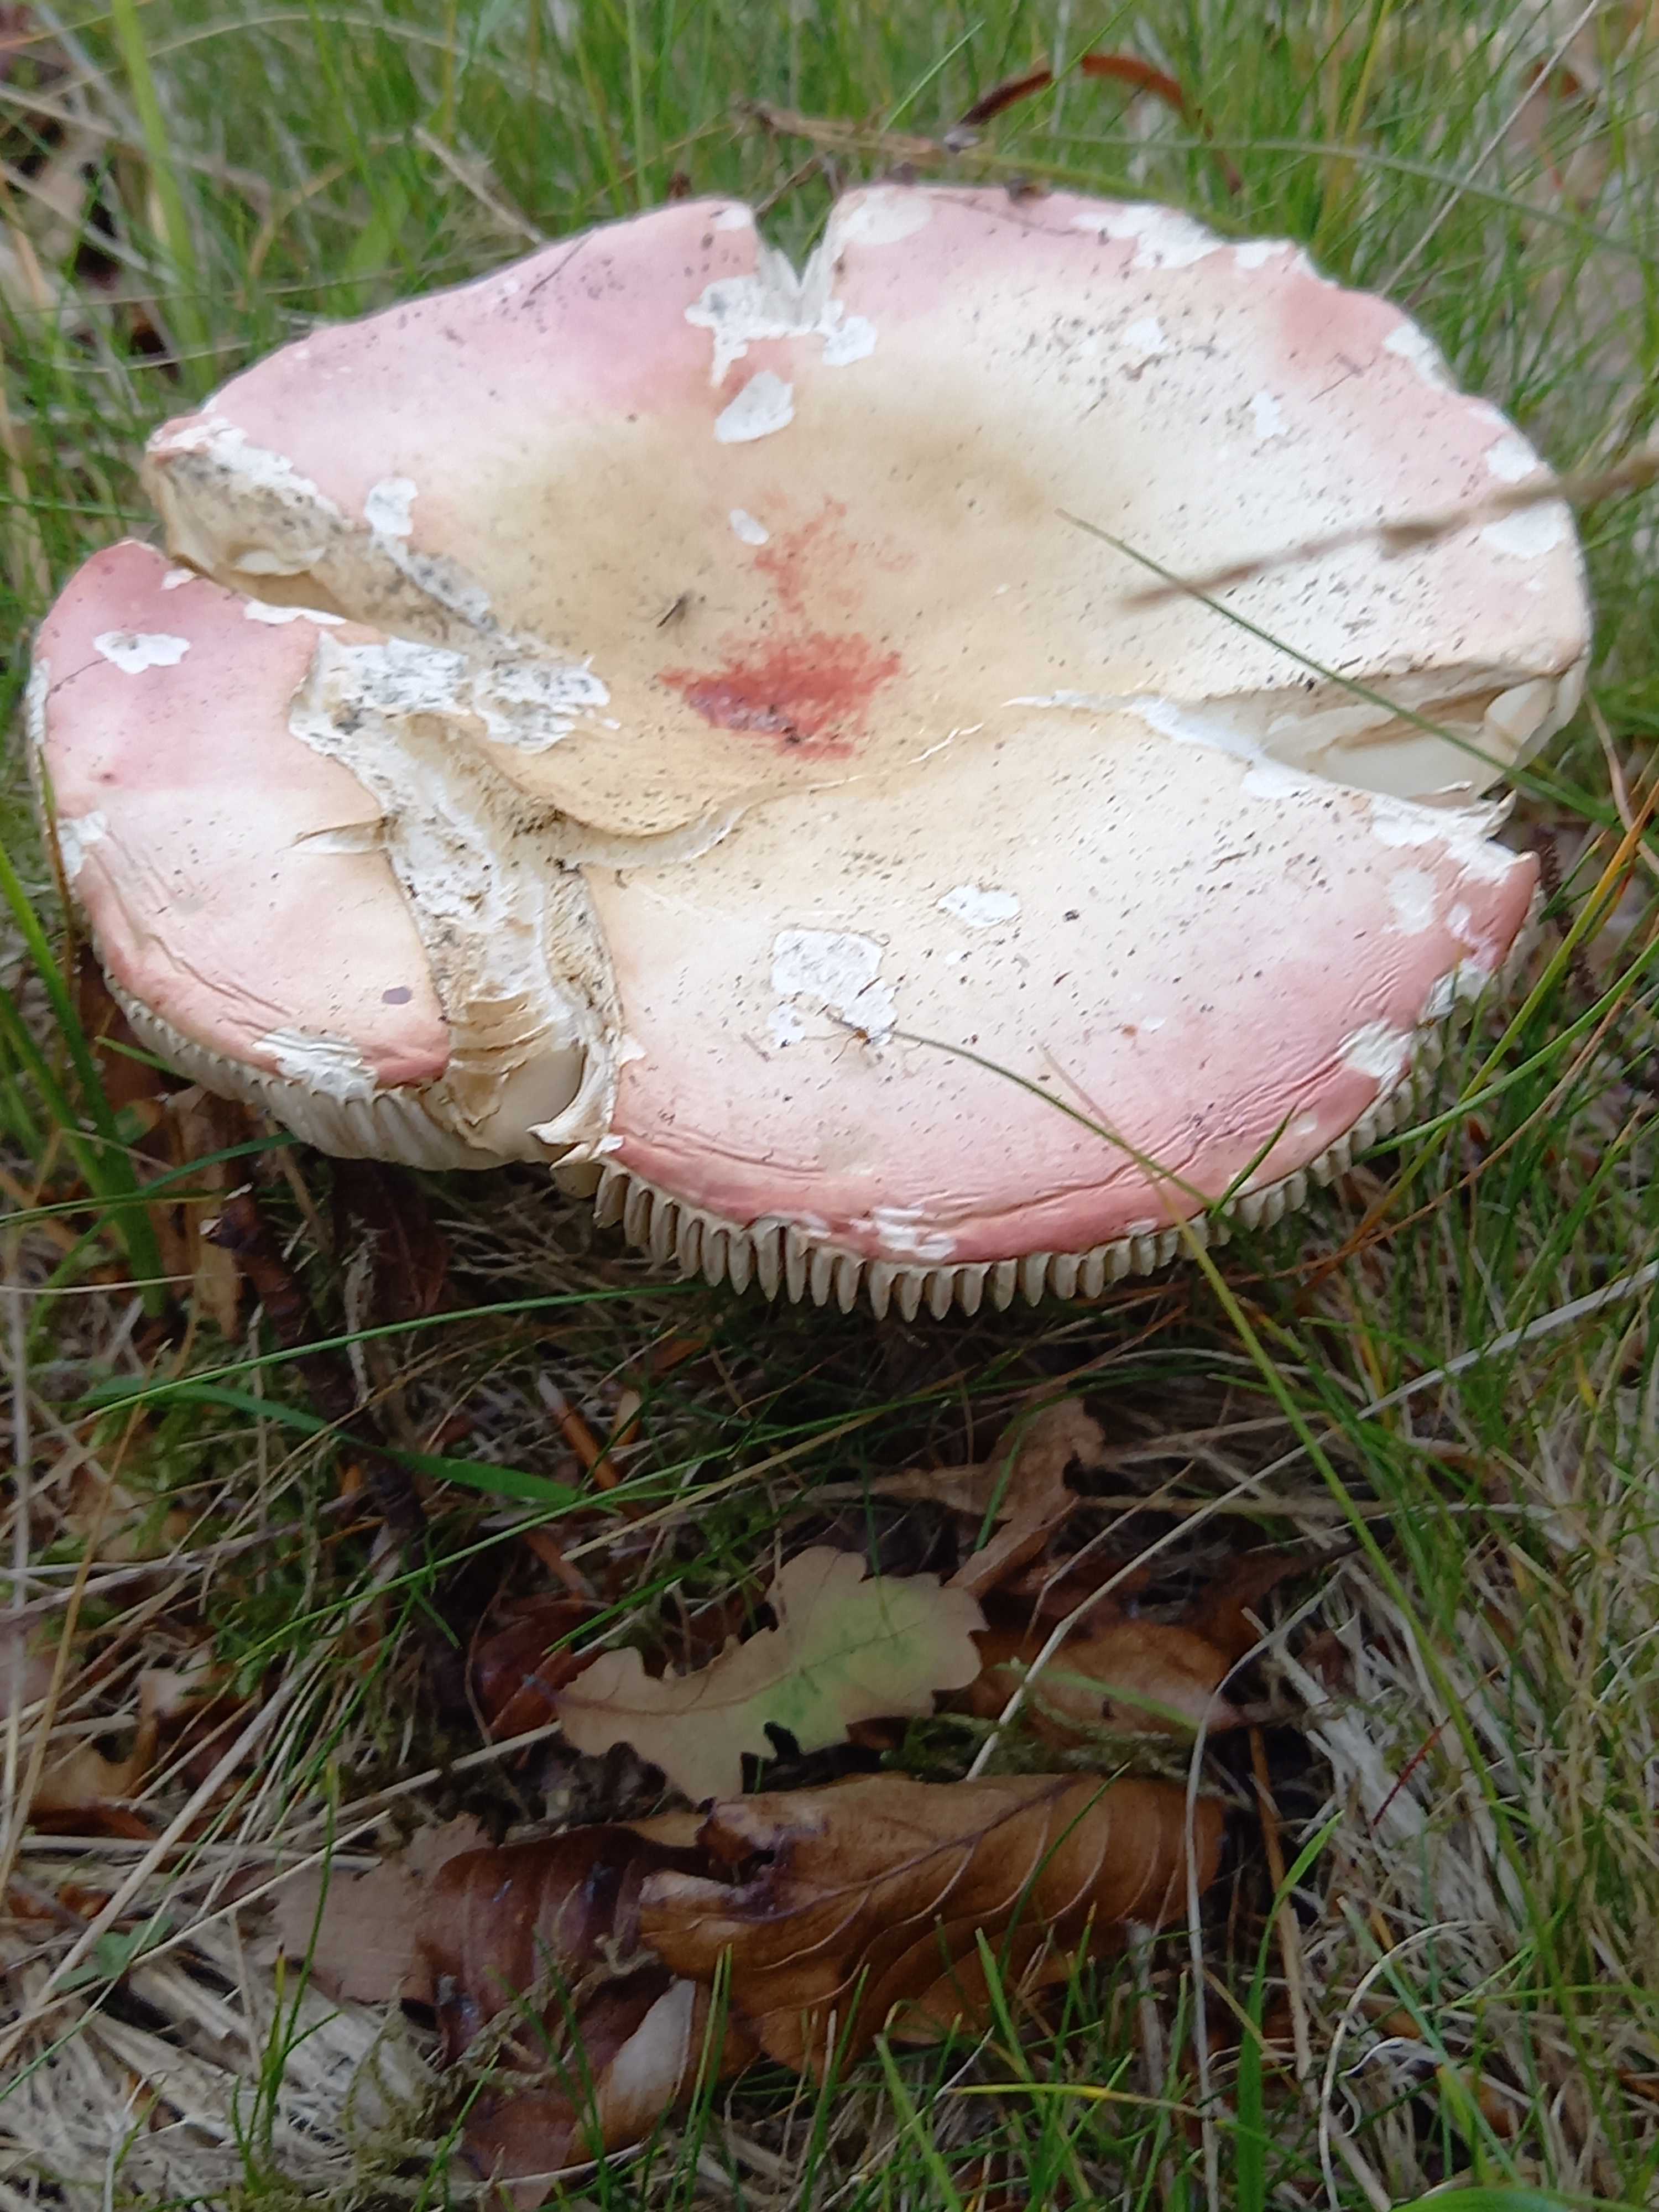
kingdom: Fungi
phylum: Basidiomycota
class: Agaricomycetes
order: Russulales
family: Russulaceae
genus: Russula
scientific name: Russula rosea
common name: fastkødet skørhat
